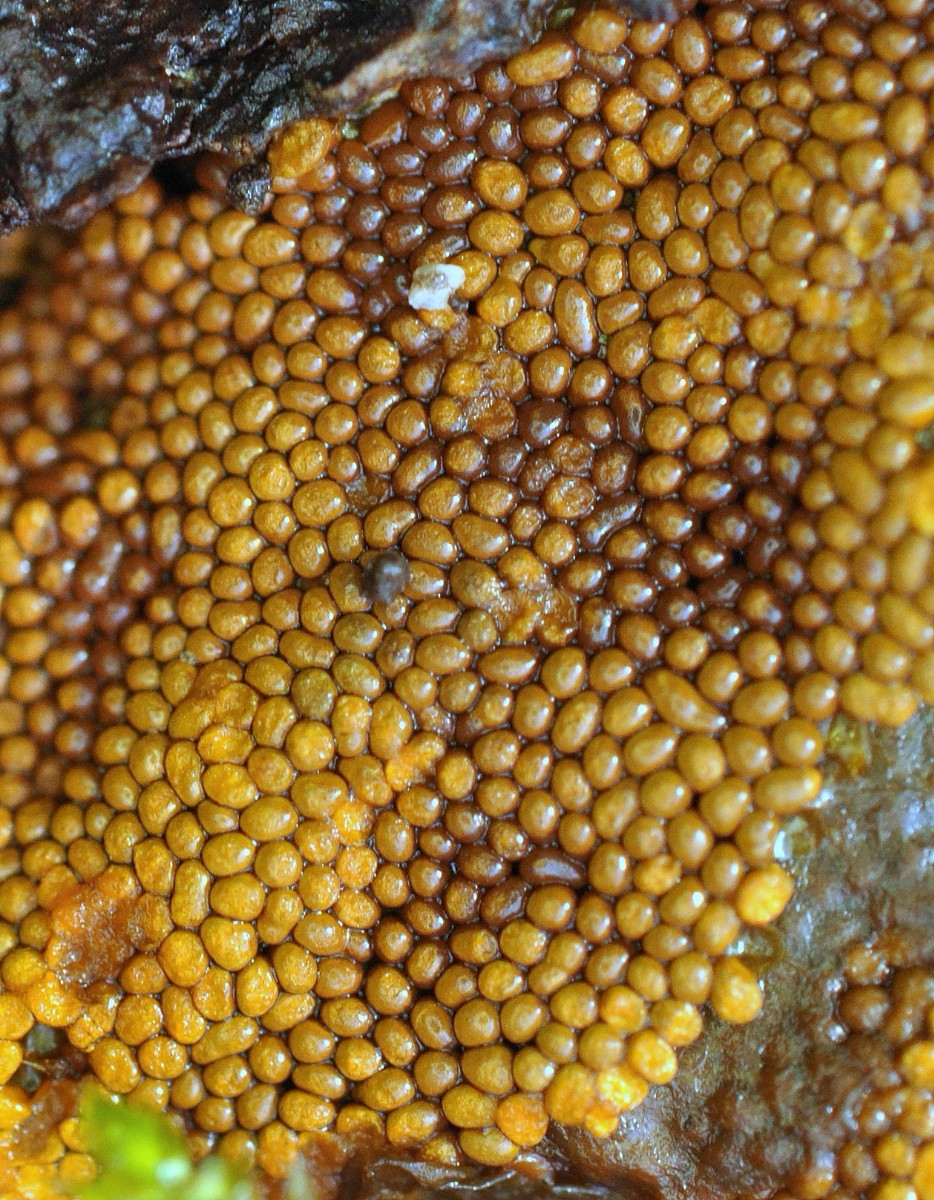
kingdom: Protozoa
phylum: Mycetozoa
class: Myxomycetes
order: Trichiales
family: Trichiaceae
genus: Trichia
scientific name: Trichia
